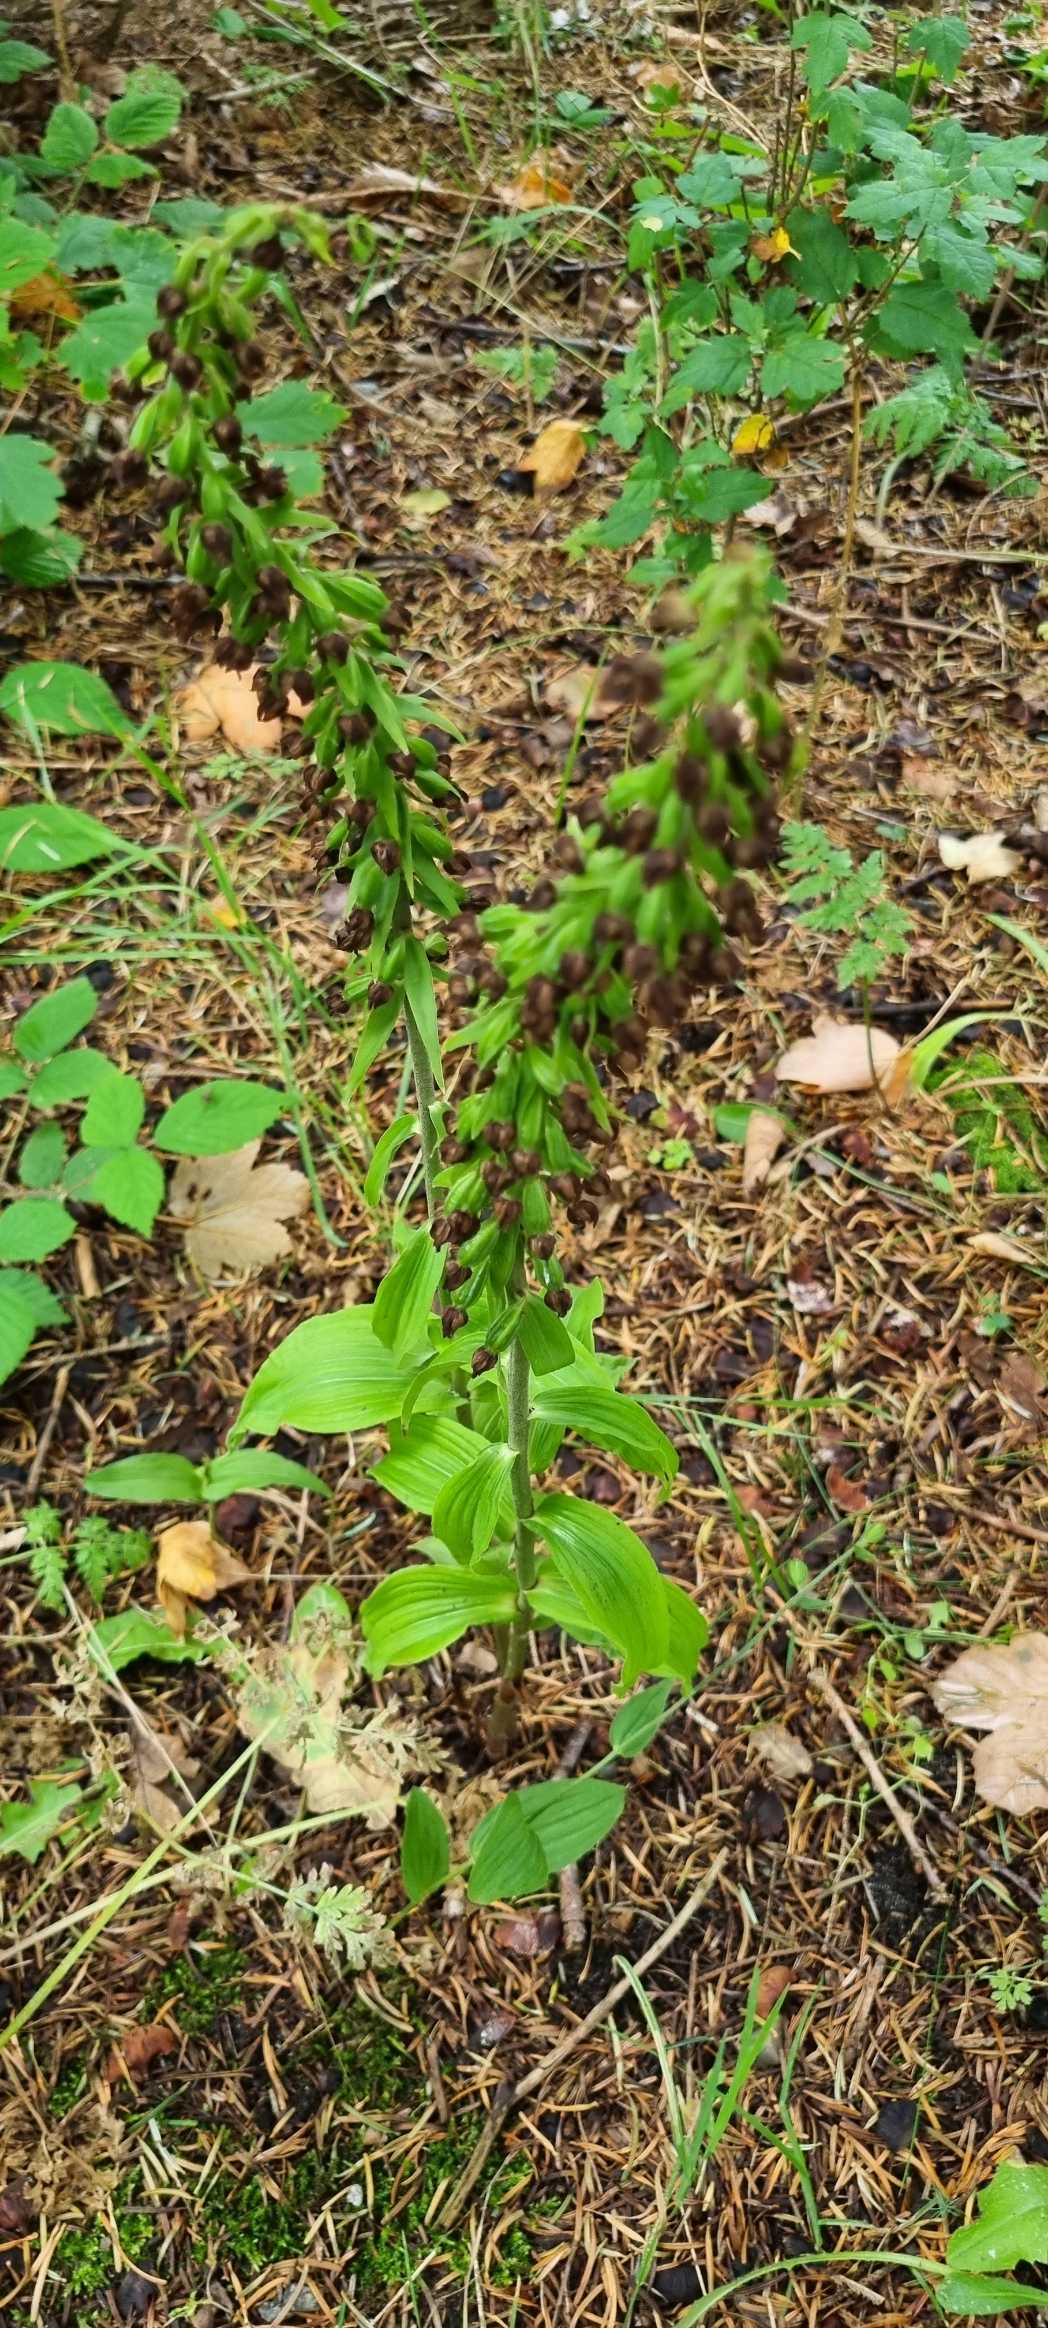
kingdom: Plantae
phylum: Tracheophyta
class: Liliopsida
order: Asparagales
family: Orchidaceae
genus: Epipactis
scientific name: Epipactis helleborine
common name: Skov-hullæbe
